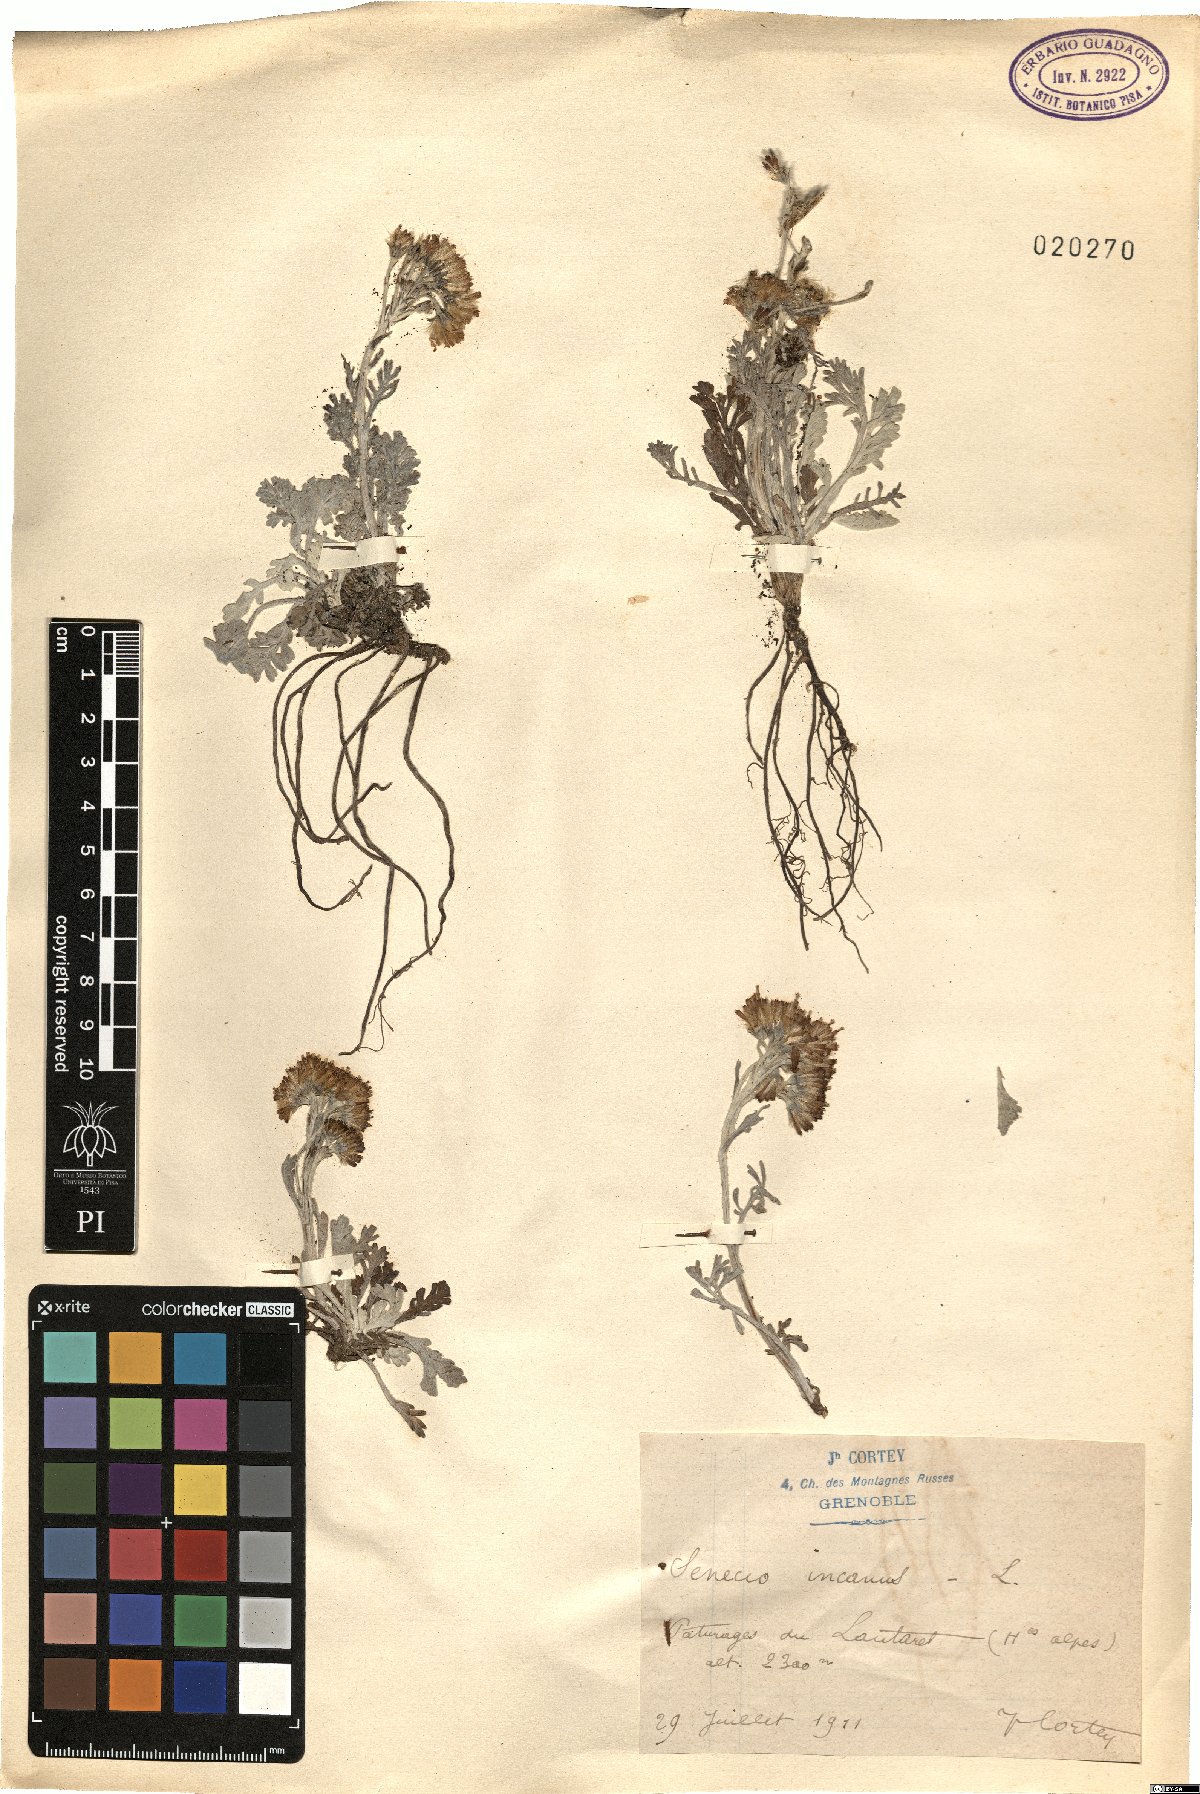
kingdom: Plantae
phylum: Tracheophyta
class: Magnoliopsida
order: Asterales
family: Asteraceae
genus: Jacobaea
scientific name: Jacobaea incana
